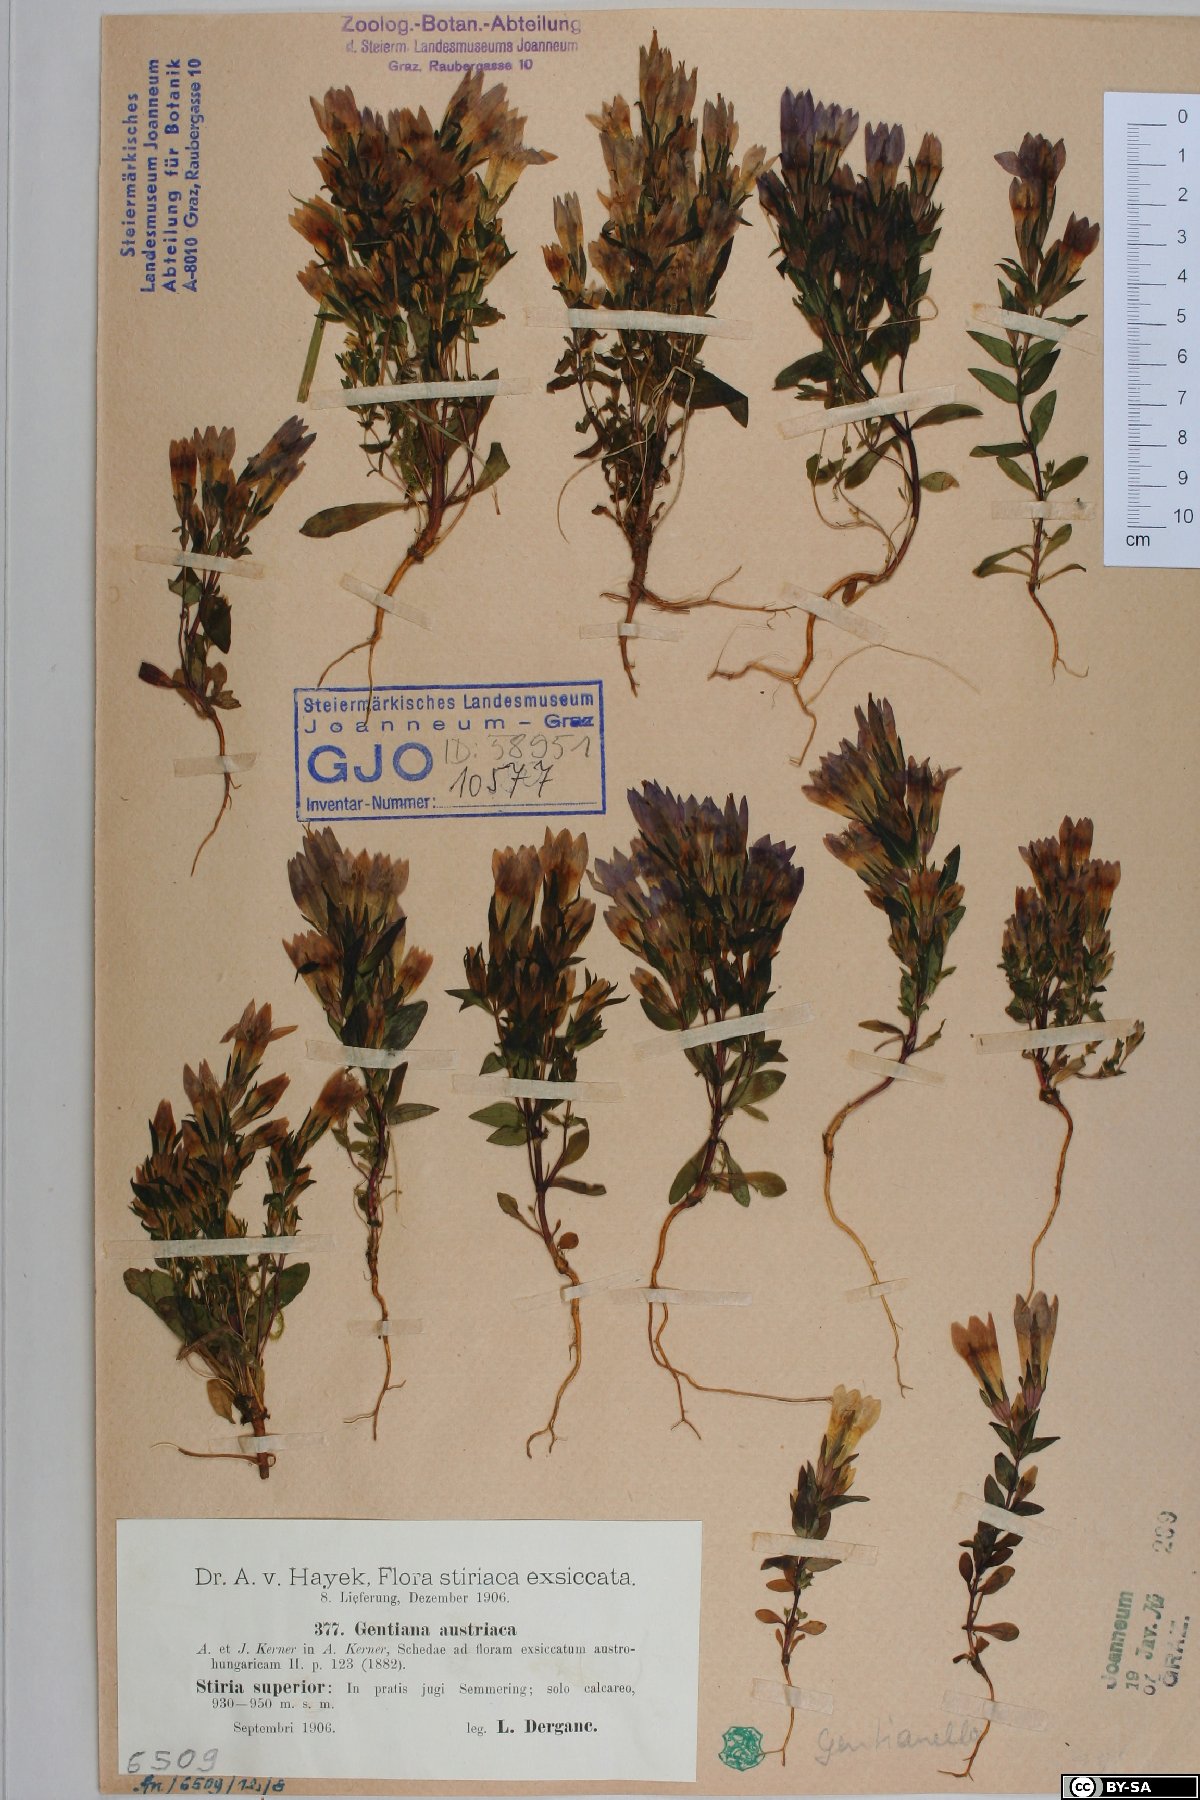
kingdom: Plantae
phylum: Tracheophyta
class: Magnoliopsida
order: Gentianales
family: Gentianaceae
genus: Gentianella
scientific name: Gentianella austriaca
